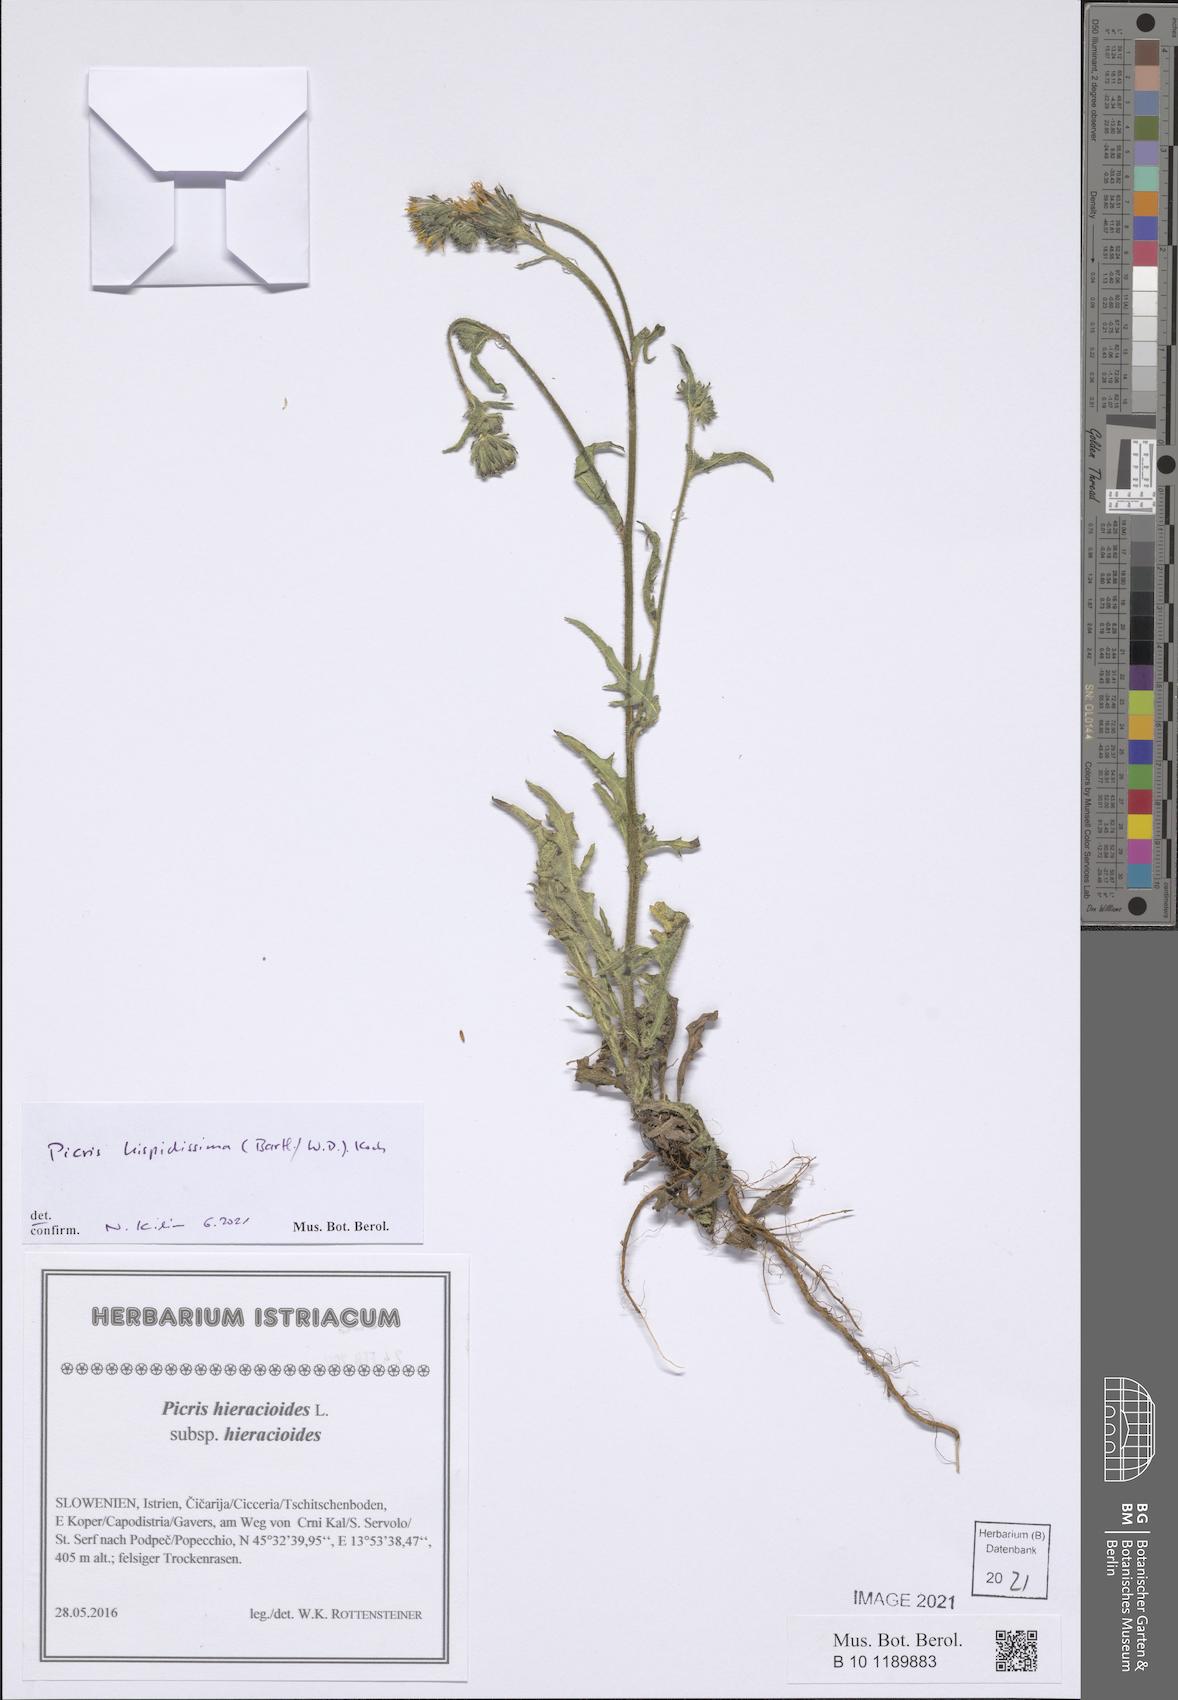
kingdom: Plantae
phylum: Tracheophyta
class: Magnoliopsida
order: Asterales
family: Asteraceae
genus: Picris
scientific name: Picris hispidissima
